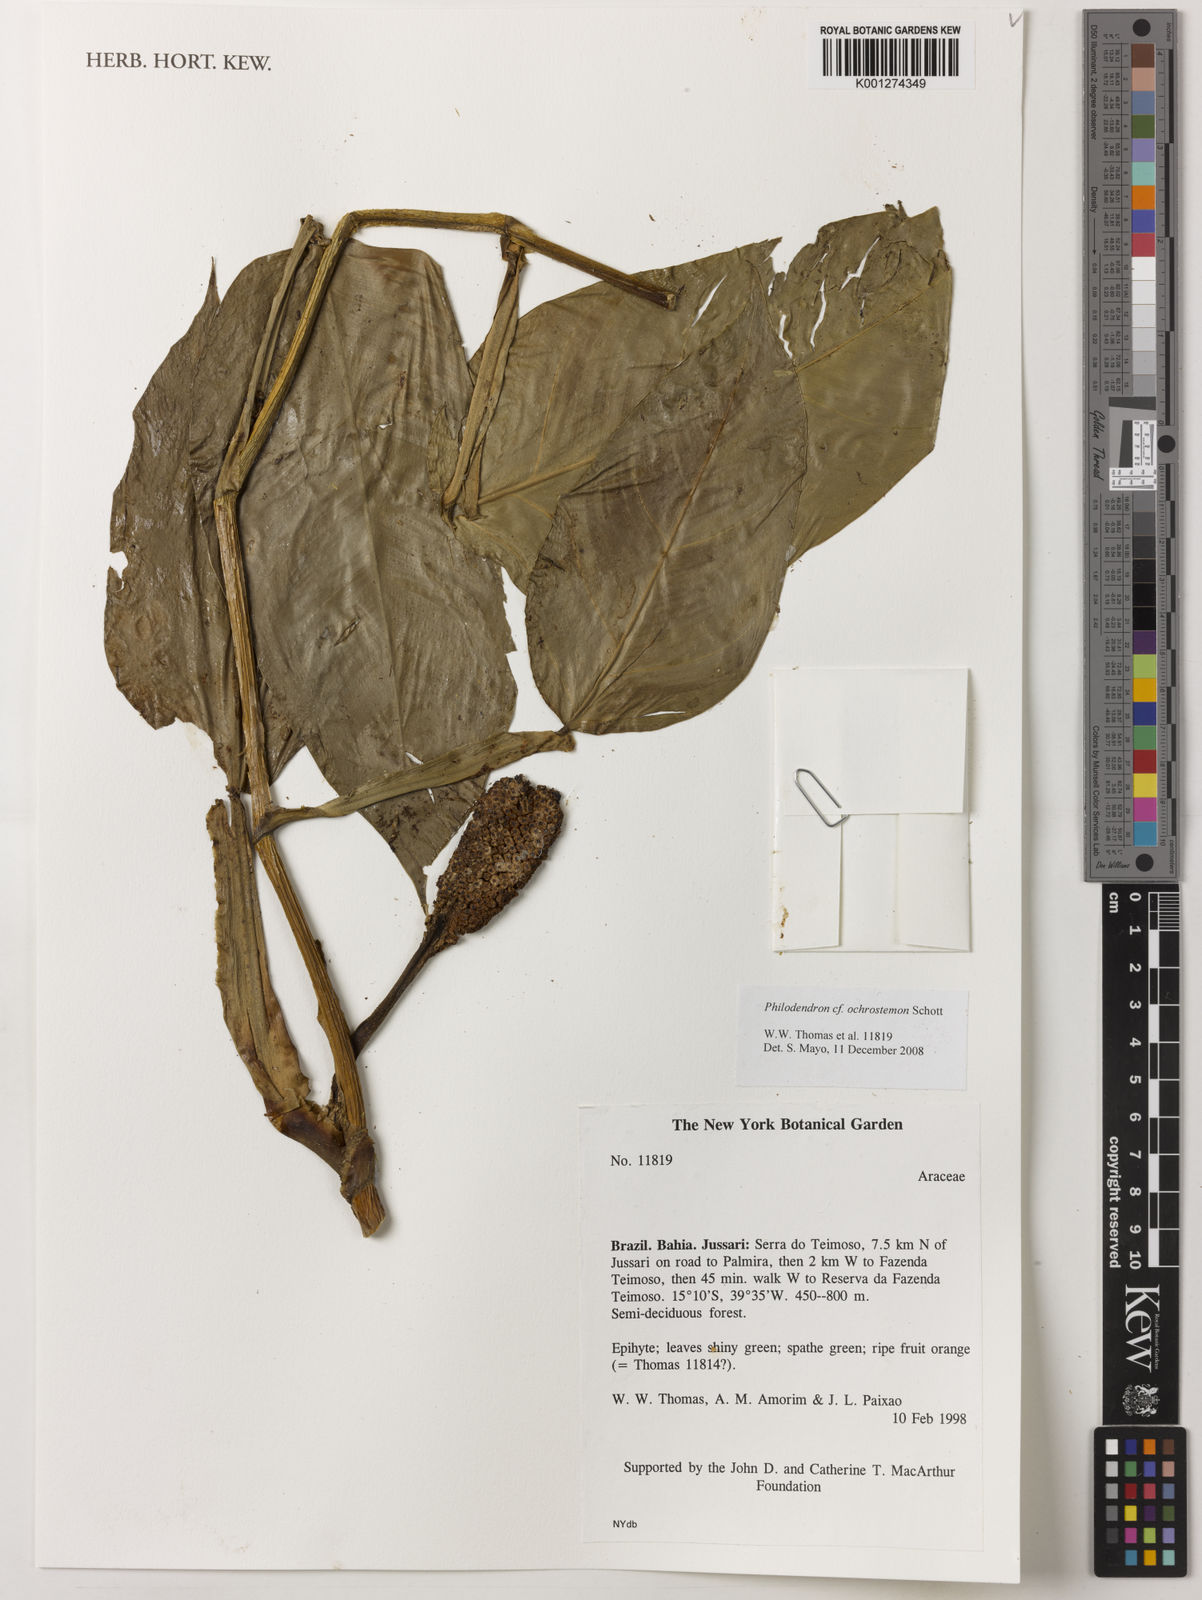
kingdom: Plantae
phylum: Tracheophyta
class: Liliopsida
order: Alismatales
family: Araceae
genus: Philodendron
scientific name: Philodendron ochrostemon
